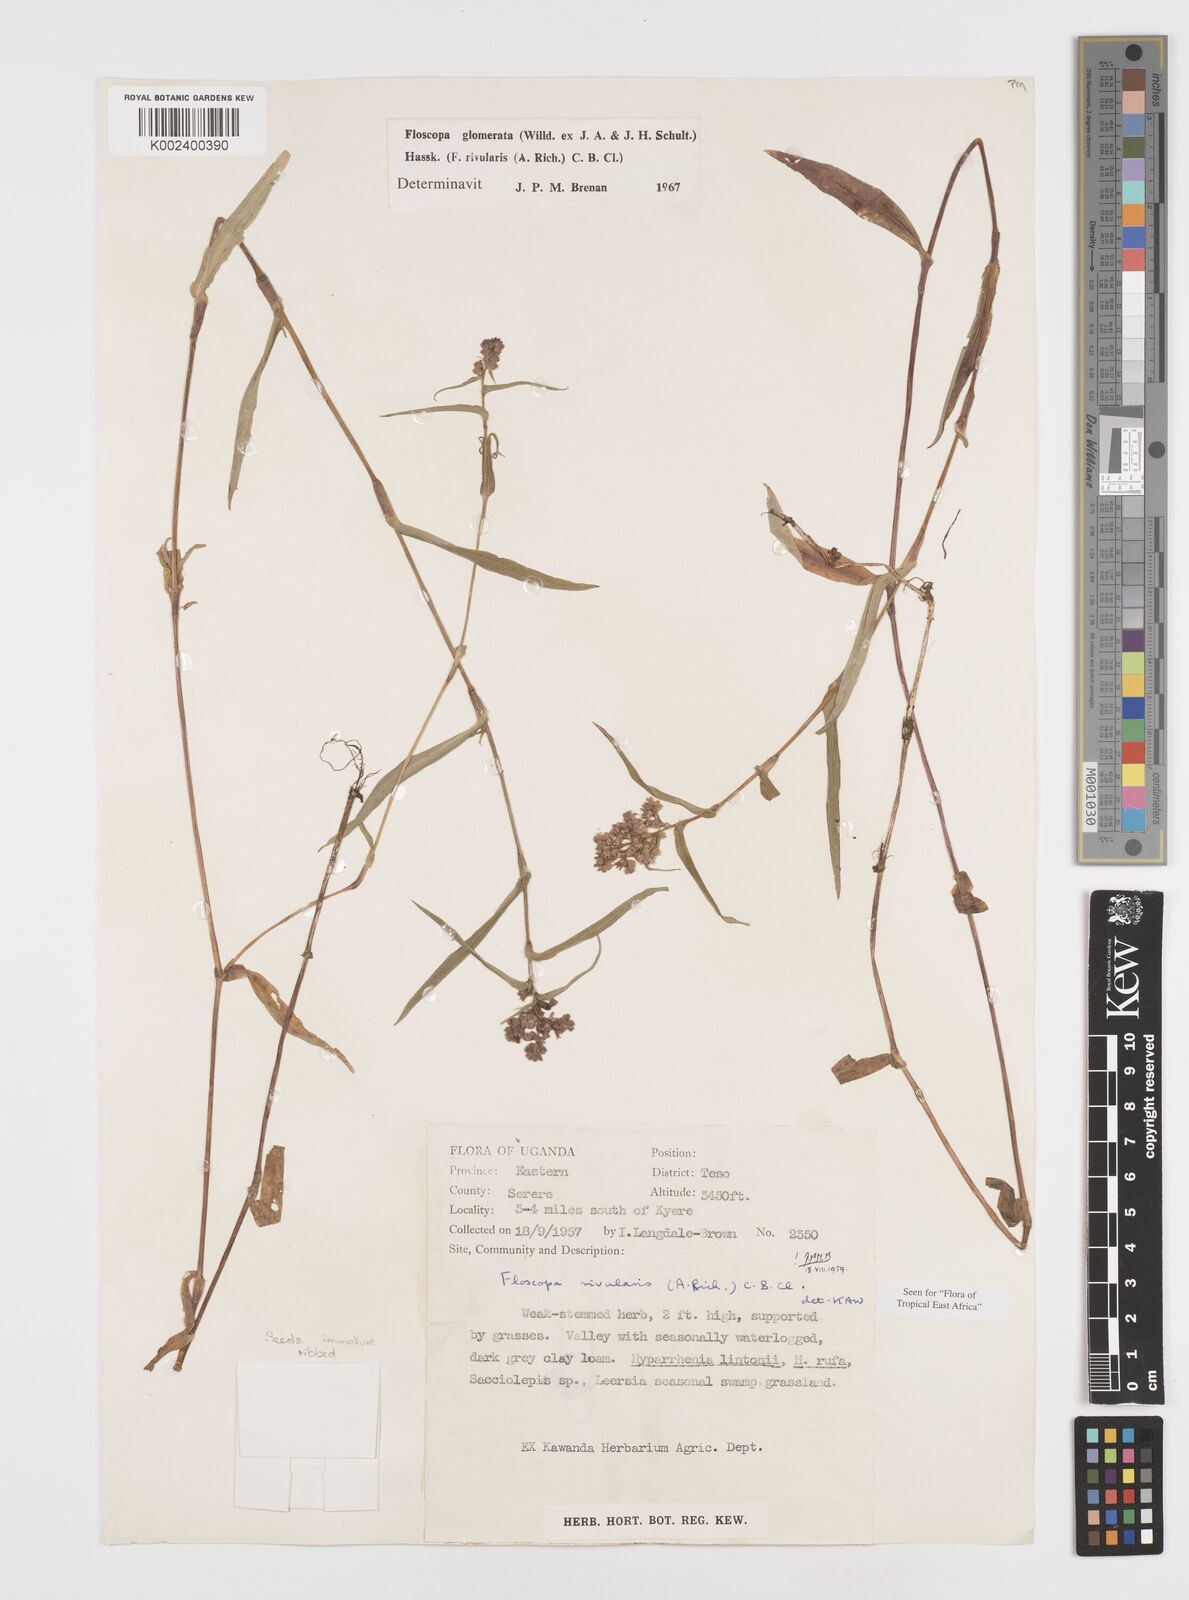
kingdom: Plantae
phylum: Tracheophyta
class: Liliopsida
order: Commelinales
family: Commelinaceae
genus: Floscopa
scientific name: Floscopa glomerata
